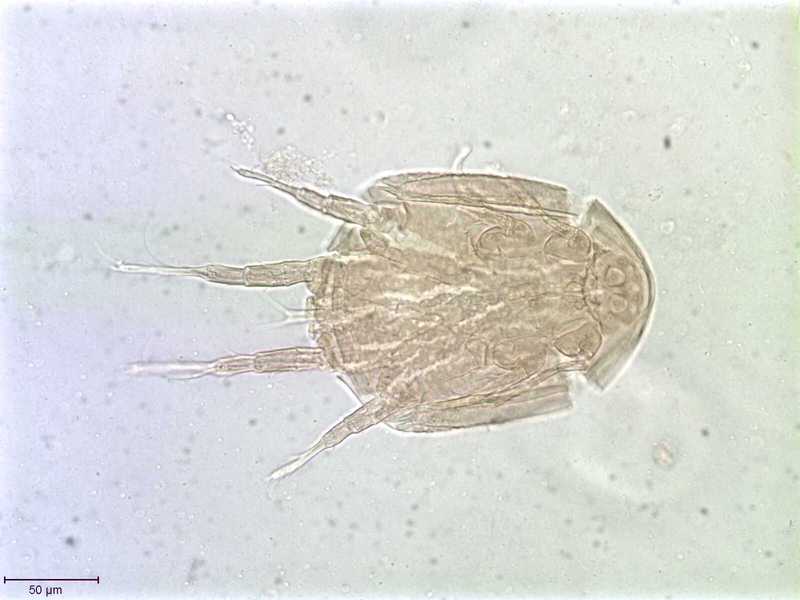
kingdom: Animalia
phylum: Arthropoda
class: Arachnida
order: Sarcoptiformes
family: Histiostomatidae
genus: Capronomoia
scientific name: Capronomoia sphaerocerae
